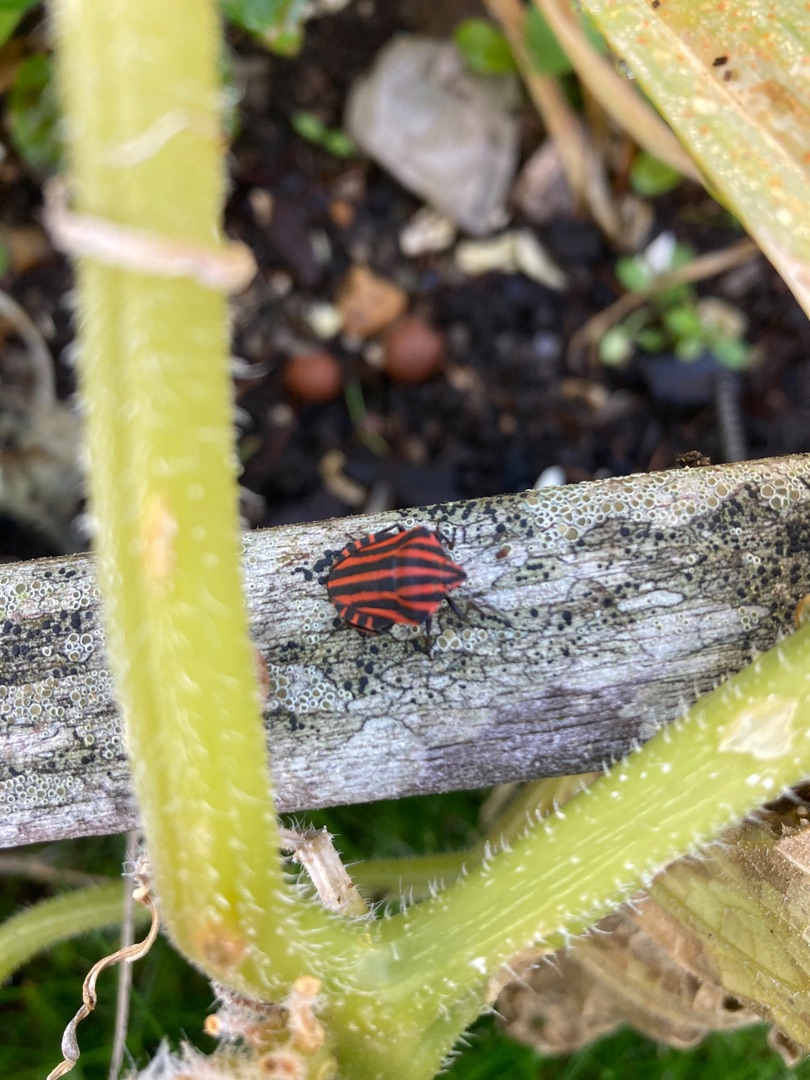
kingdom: Animalia
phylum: Arthropoda
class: Insecta
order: Hemiptera
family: Pentatomidae
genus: Graphosoma
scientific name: Graphosoma italicum
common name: Stribetæge
